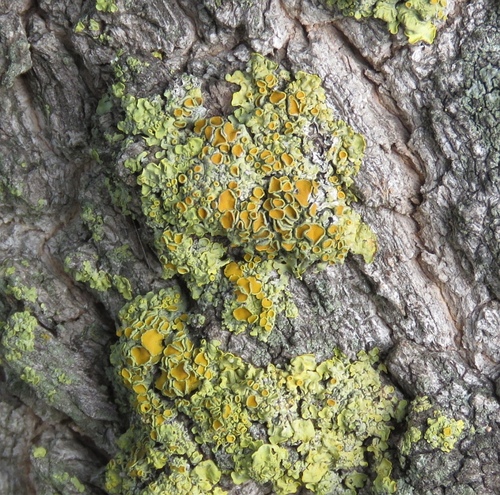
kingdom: Fungi
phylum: Ascomycota
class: Lecanoromycetes
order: Teloschistales
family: Teloschistaceae
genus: Xanthoria
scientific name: Xanthoria parietina
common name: Common orange lichen
